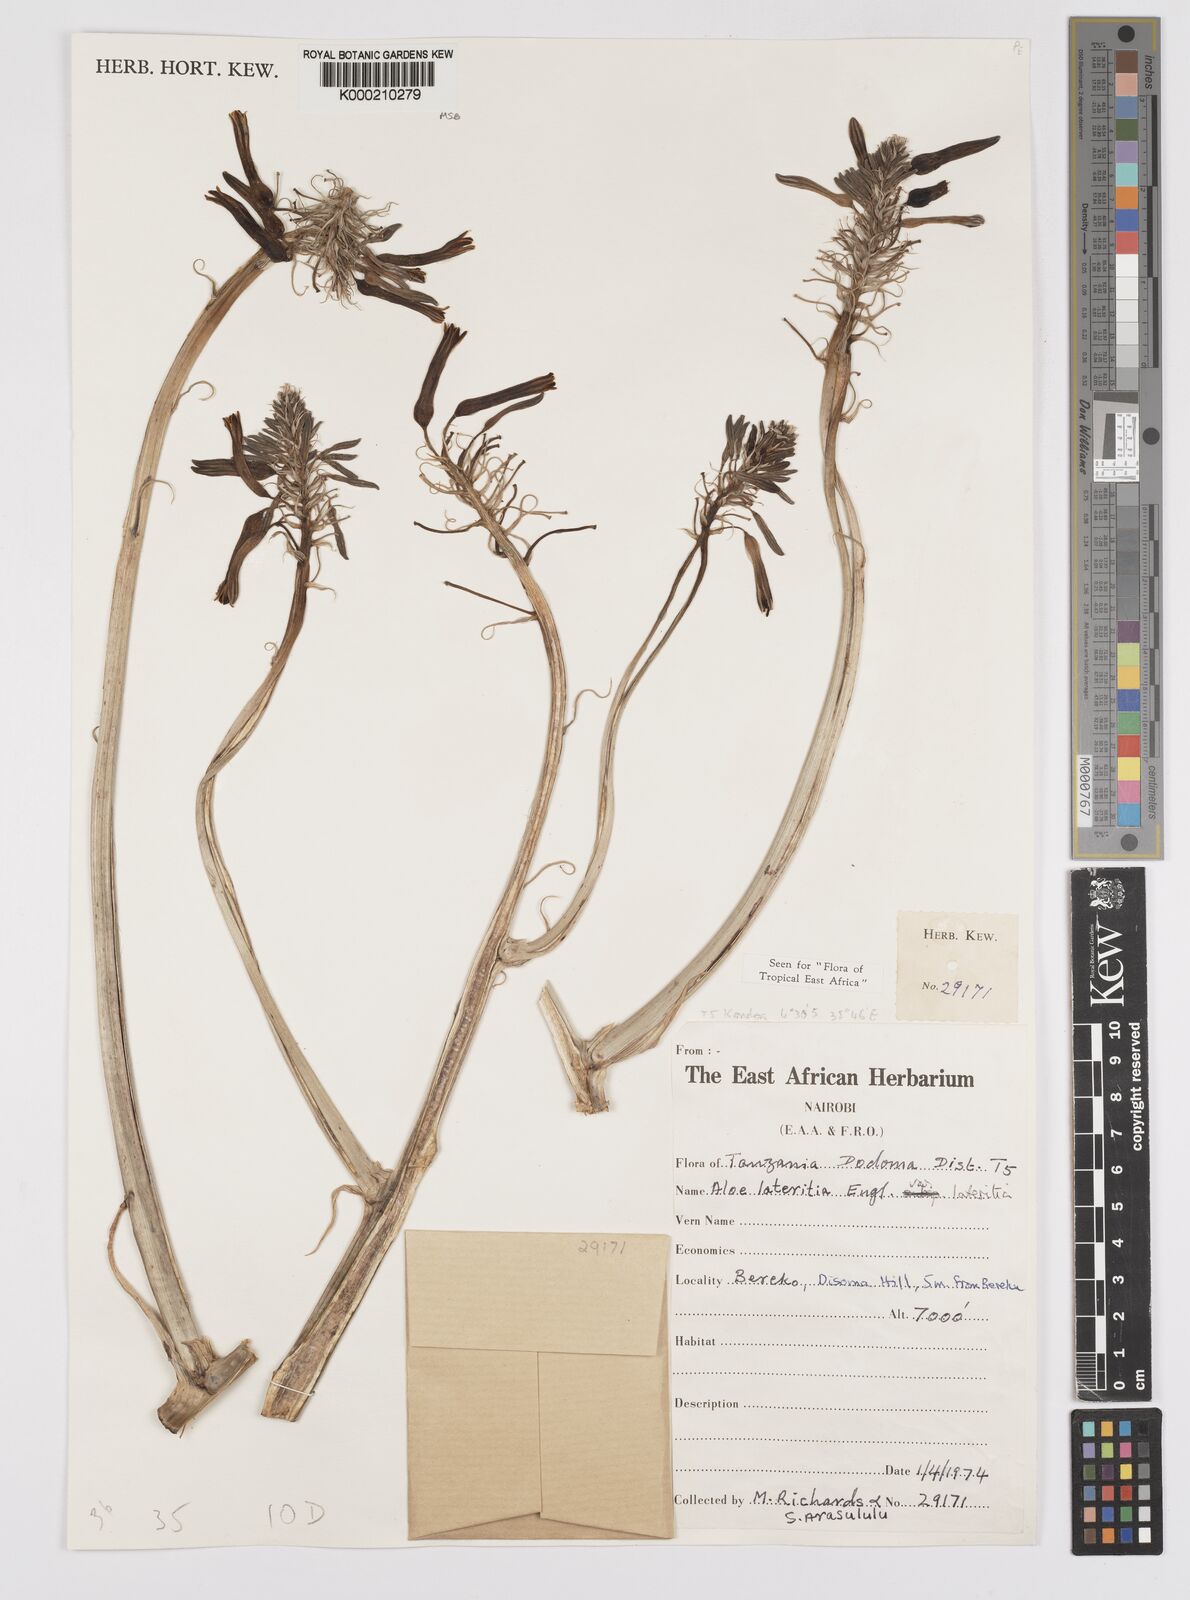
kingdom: Plantae
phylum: Tracheophyta
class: Liliopsida
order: Asparagales
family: Asphodelaceae
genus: Aloe
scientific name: Aloe lateritia
